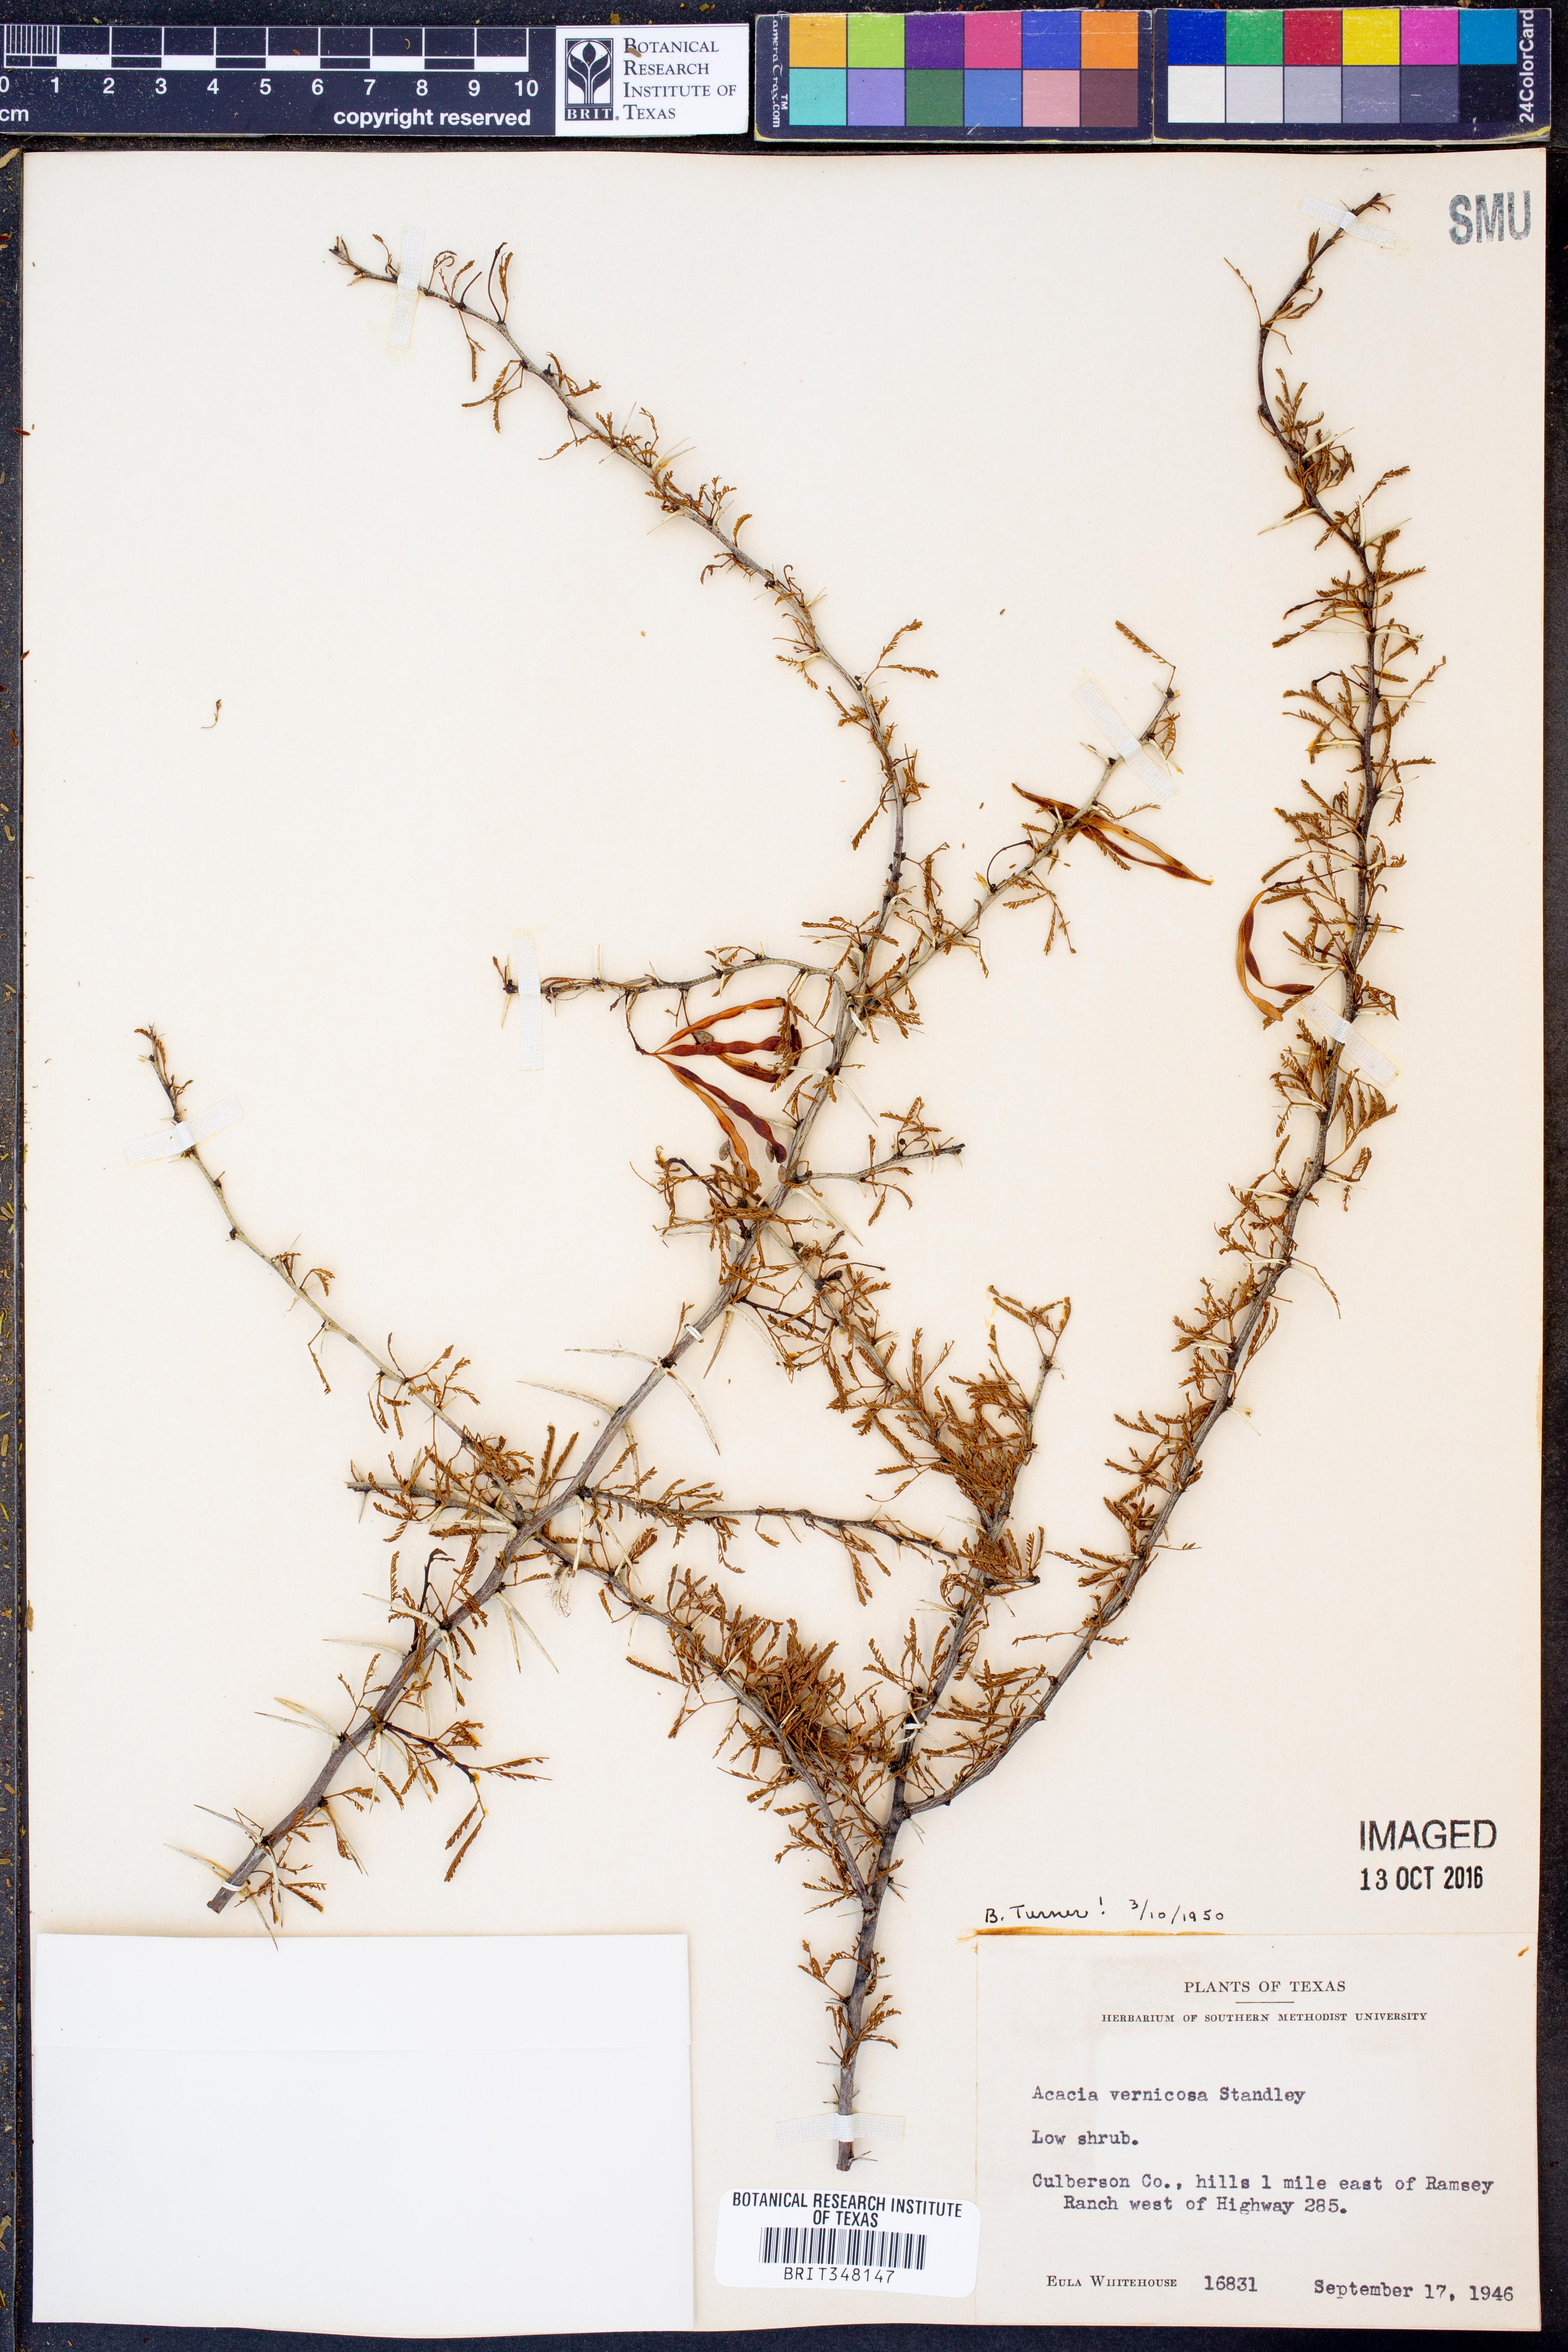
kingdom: Plantae
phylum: Tracheophyta
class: Magnoliopsida
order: Fabales
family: Fabaceae
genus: Vachellia
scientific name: Vachellia vernicosa
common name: Viscid acacia
